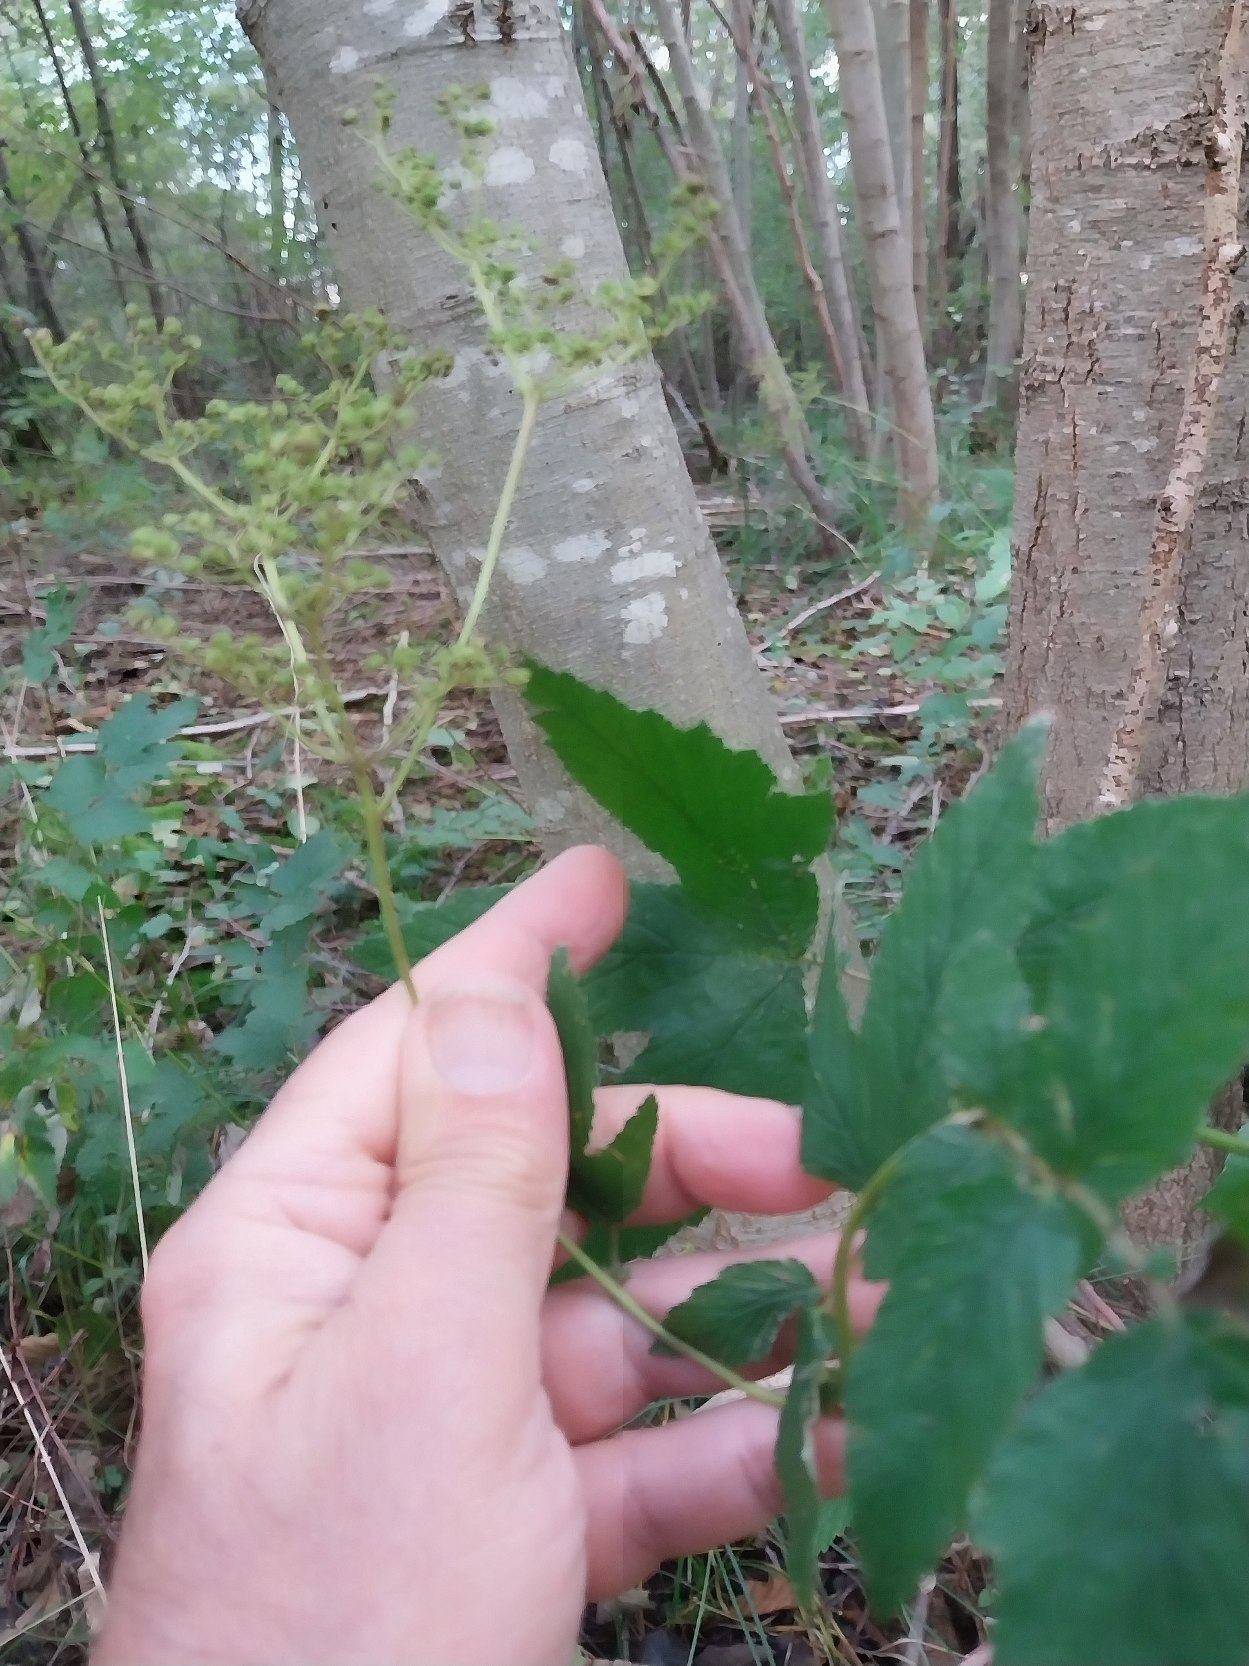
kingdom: Plantae
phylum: Tracheophyta
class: Magnoliopsida
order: Rosales
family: Rosaceae
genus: Filipendula
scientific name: Filipendula ulmaria
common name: Almindelig mjødurt
